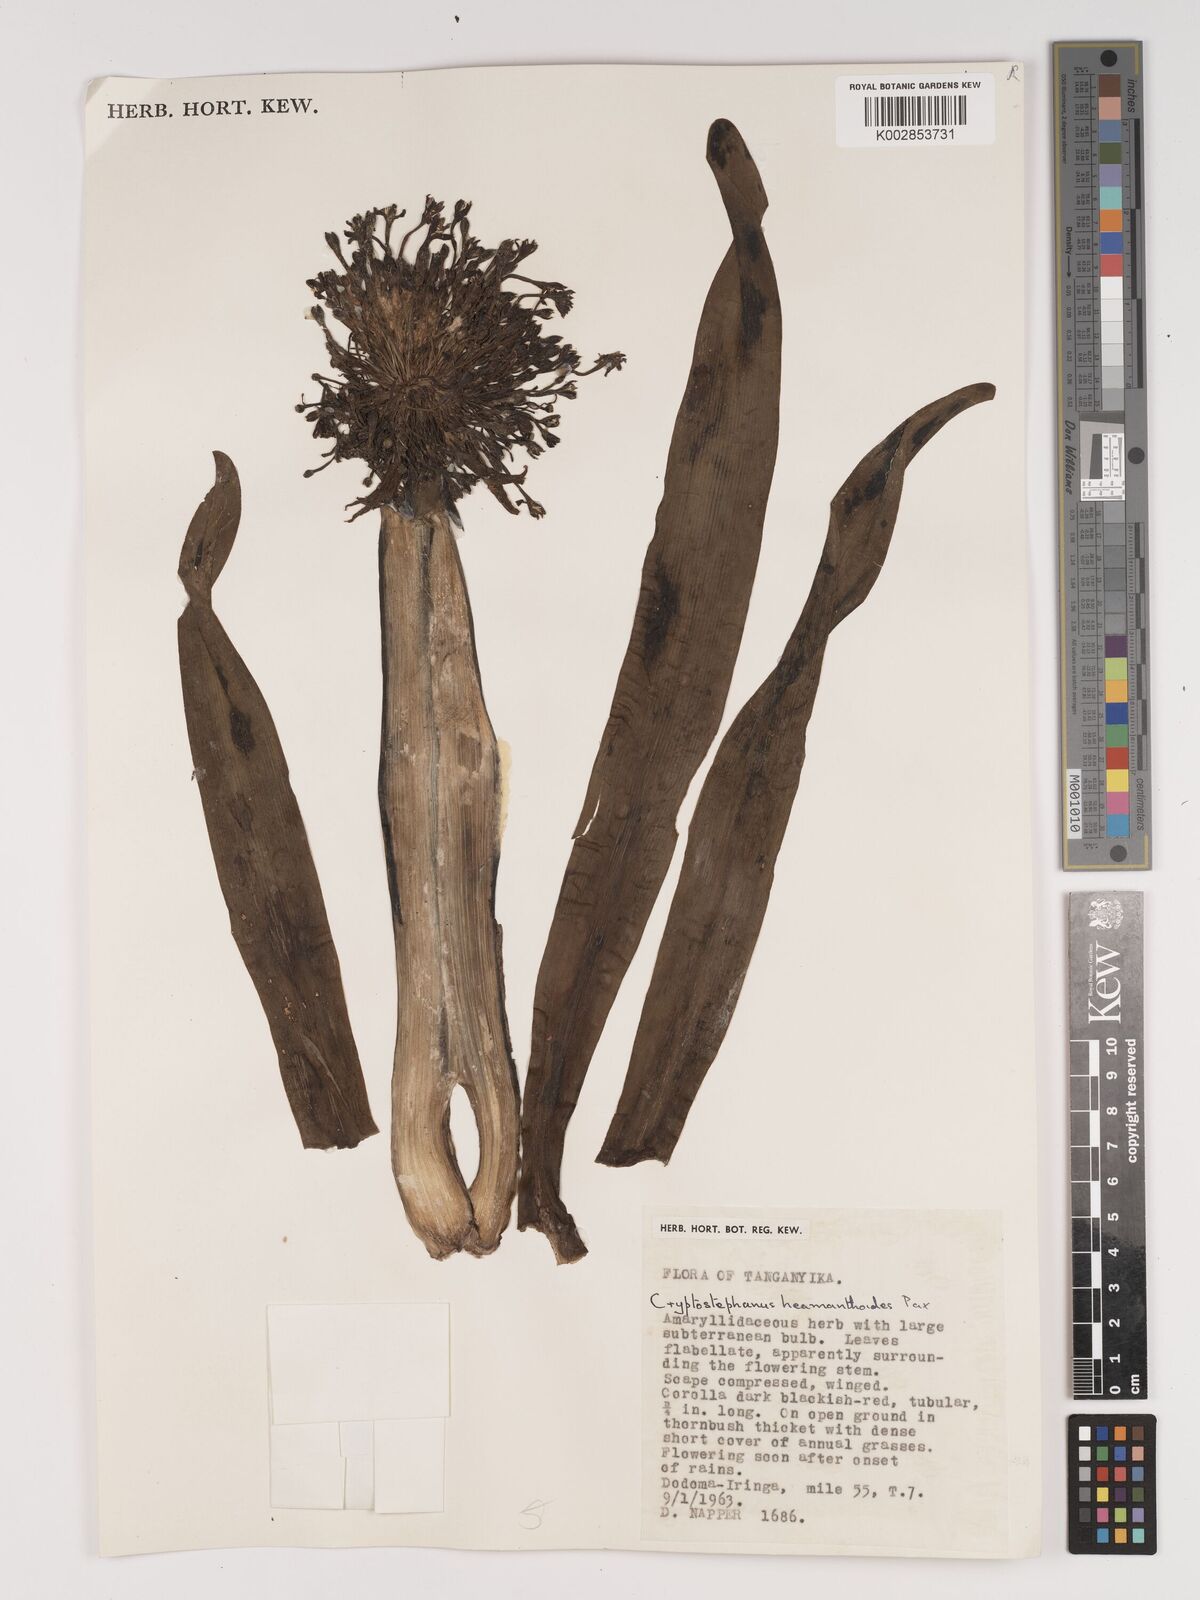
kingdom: Plantae
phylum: Tracheophyta
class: Liliopsida
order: Asparagales
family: Amaryllidaceae
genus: Cryptostephanus
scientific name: Cryptostephanus haemanthoides
